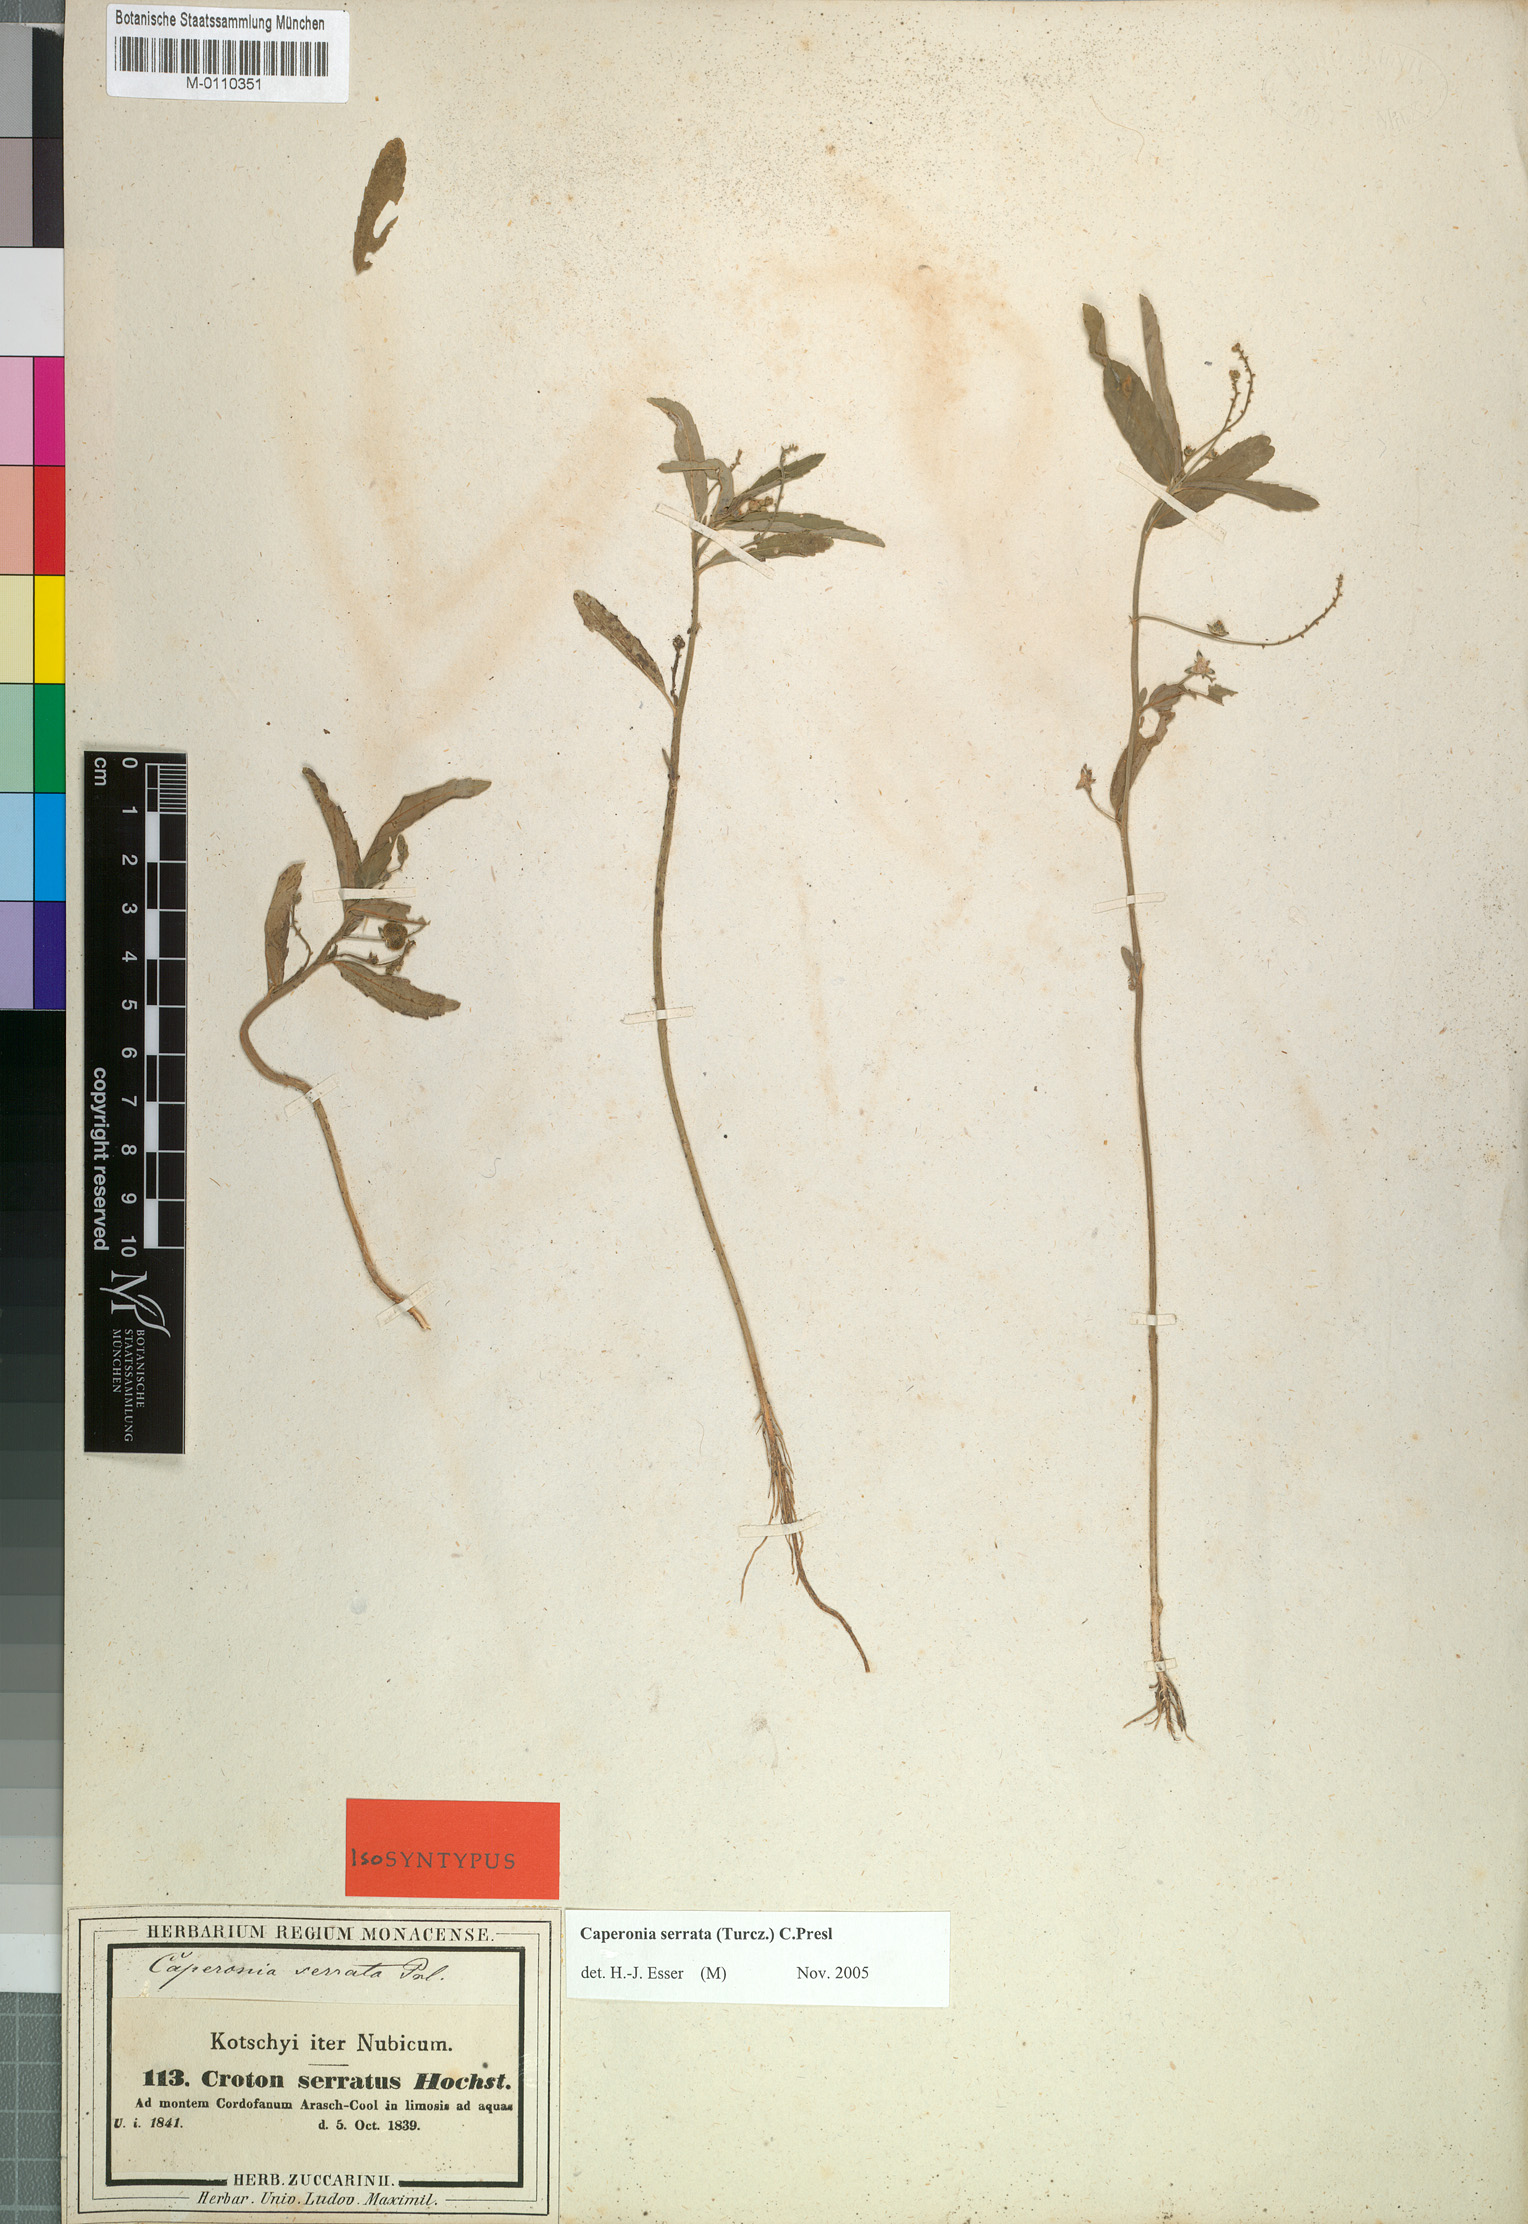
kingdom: Plantae
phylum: Tracheophyta
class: Magnoliopsida
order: Malpighiales
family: Euphorbiaceae
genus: Caperonia
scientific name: Caperonia serrata
